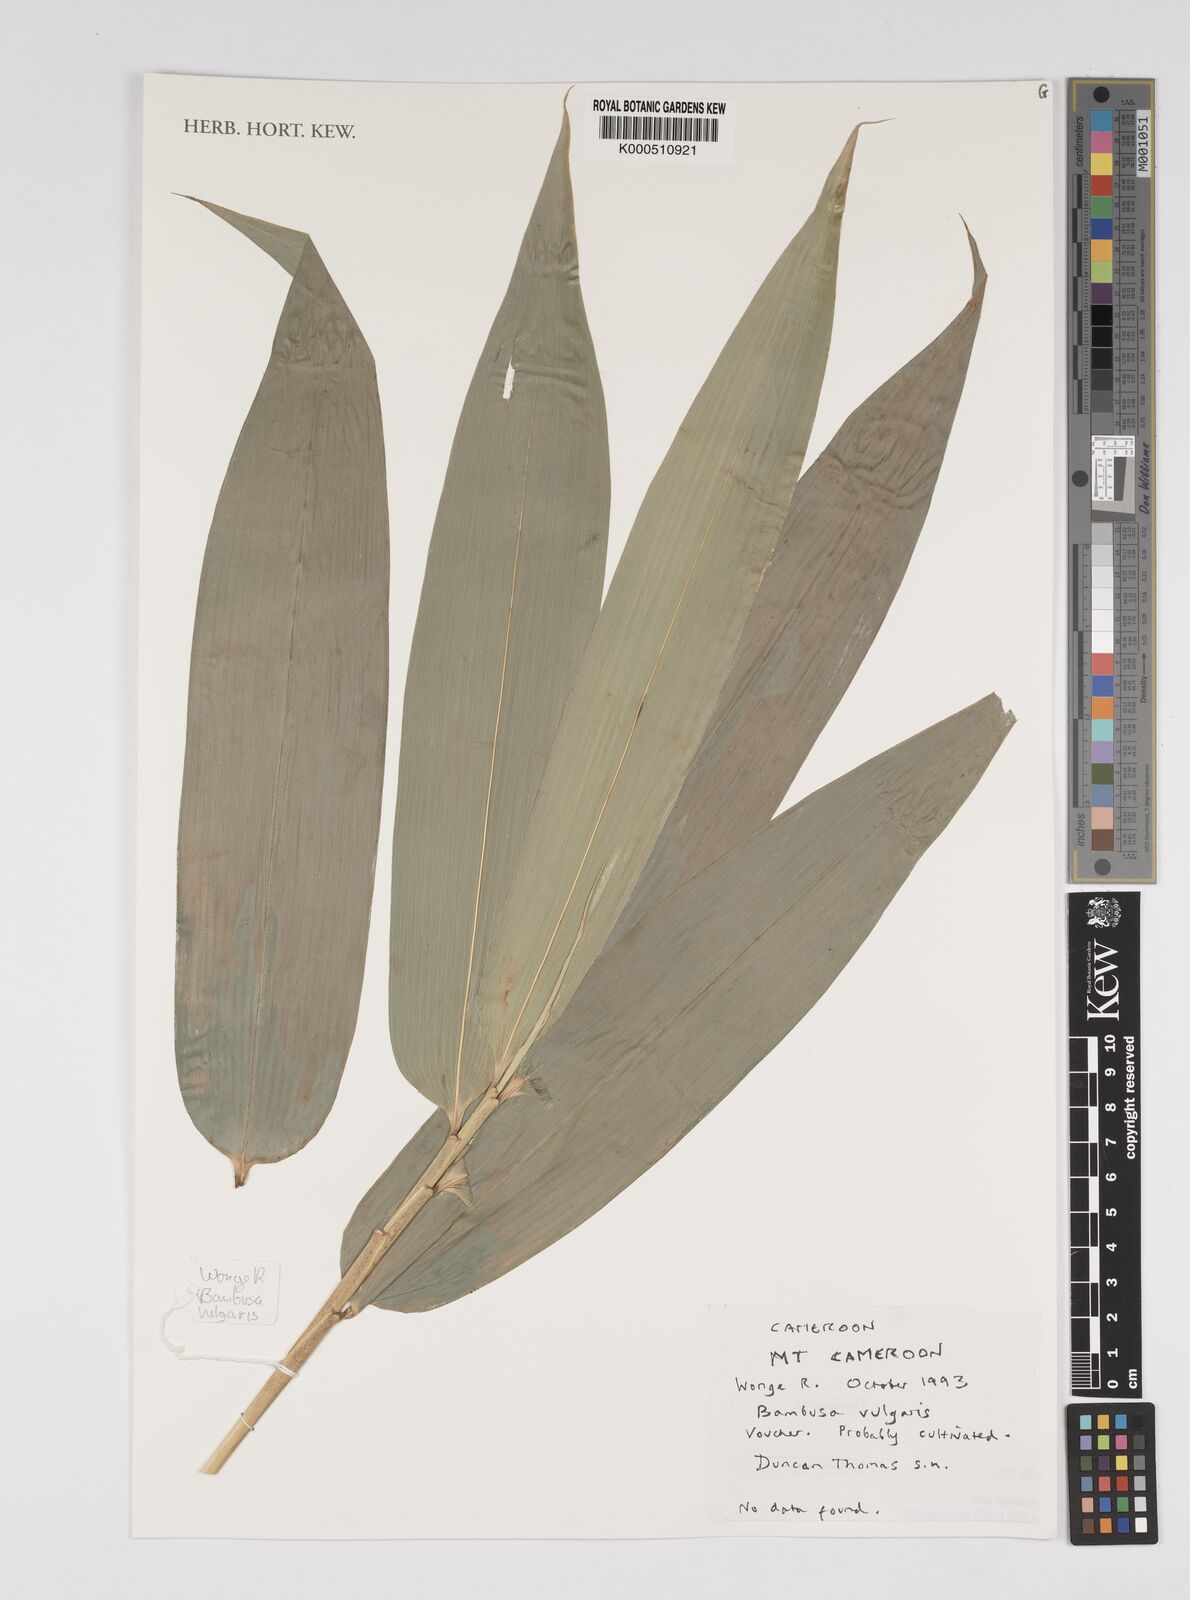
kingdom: Plantae
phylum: Tracheophyta
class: Liliopsida
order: Poales
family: Poaceae
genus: Bambusa
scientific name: Bambusa vulgaris
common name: Common bamboo
